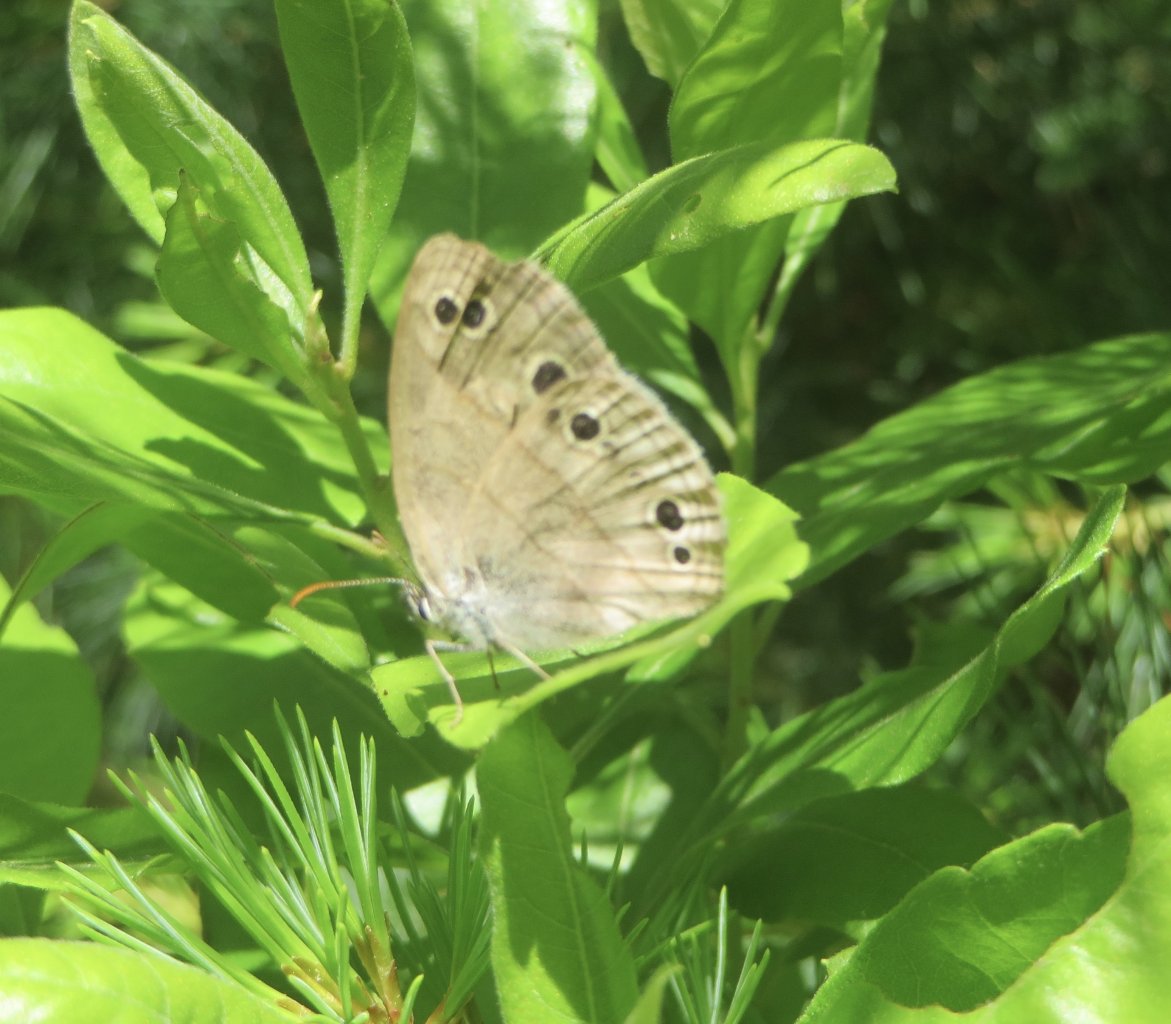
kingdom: Animalia
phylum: Arthropoda
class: Insecta
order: Lepidoptera
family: Nymphalidae
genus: Euptychia
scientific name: Euptychia cymela
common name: Little Wood Satyr
